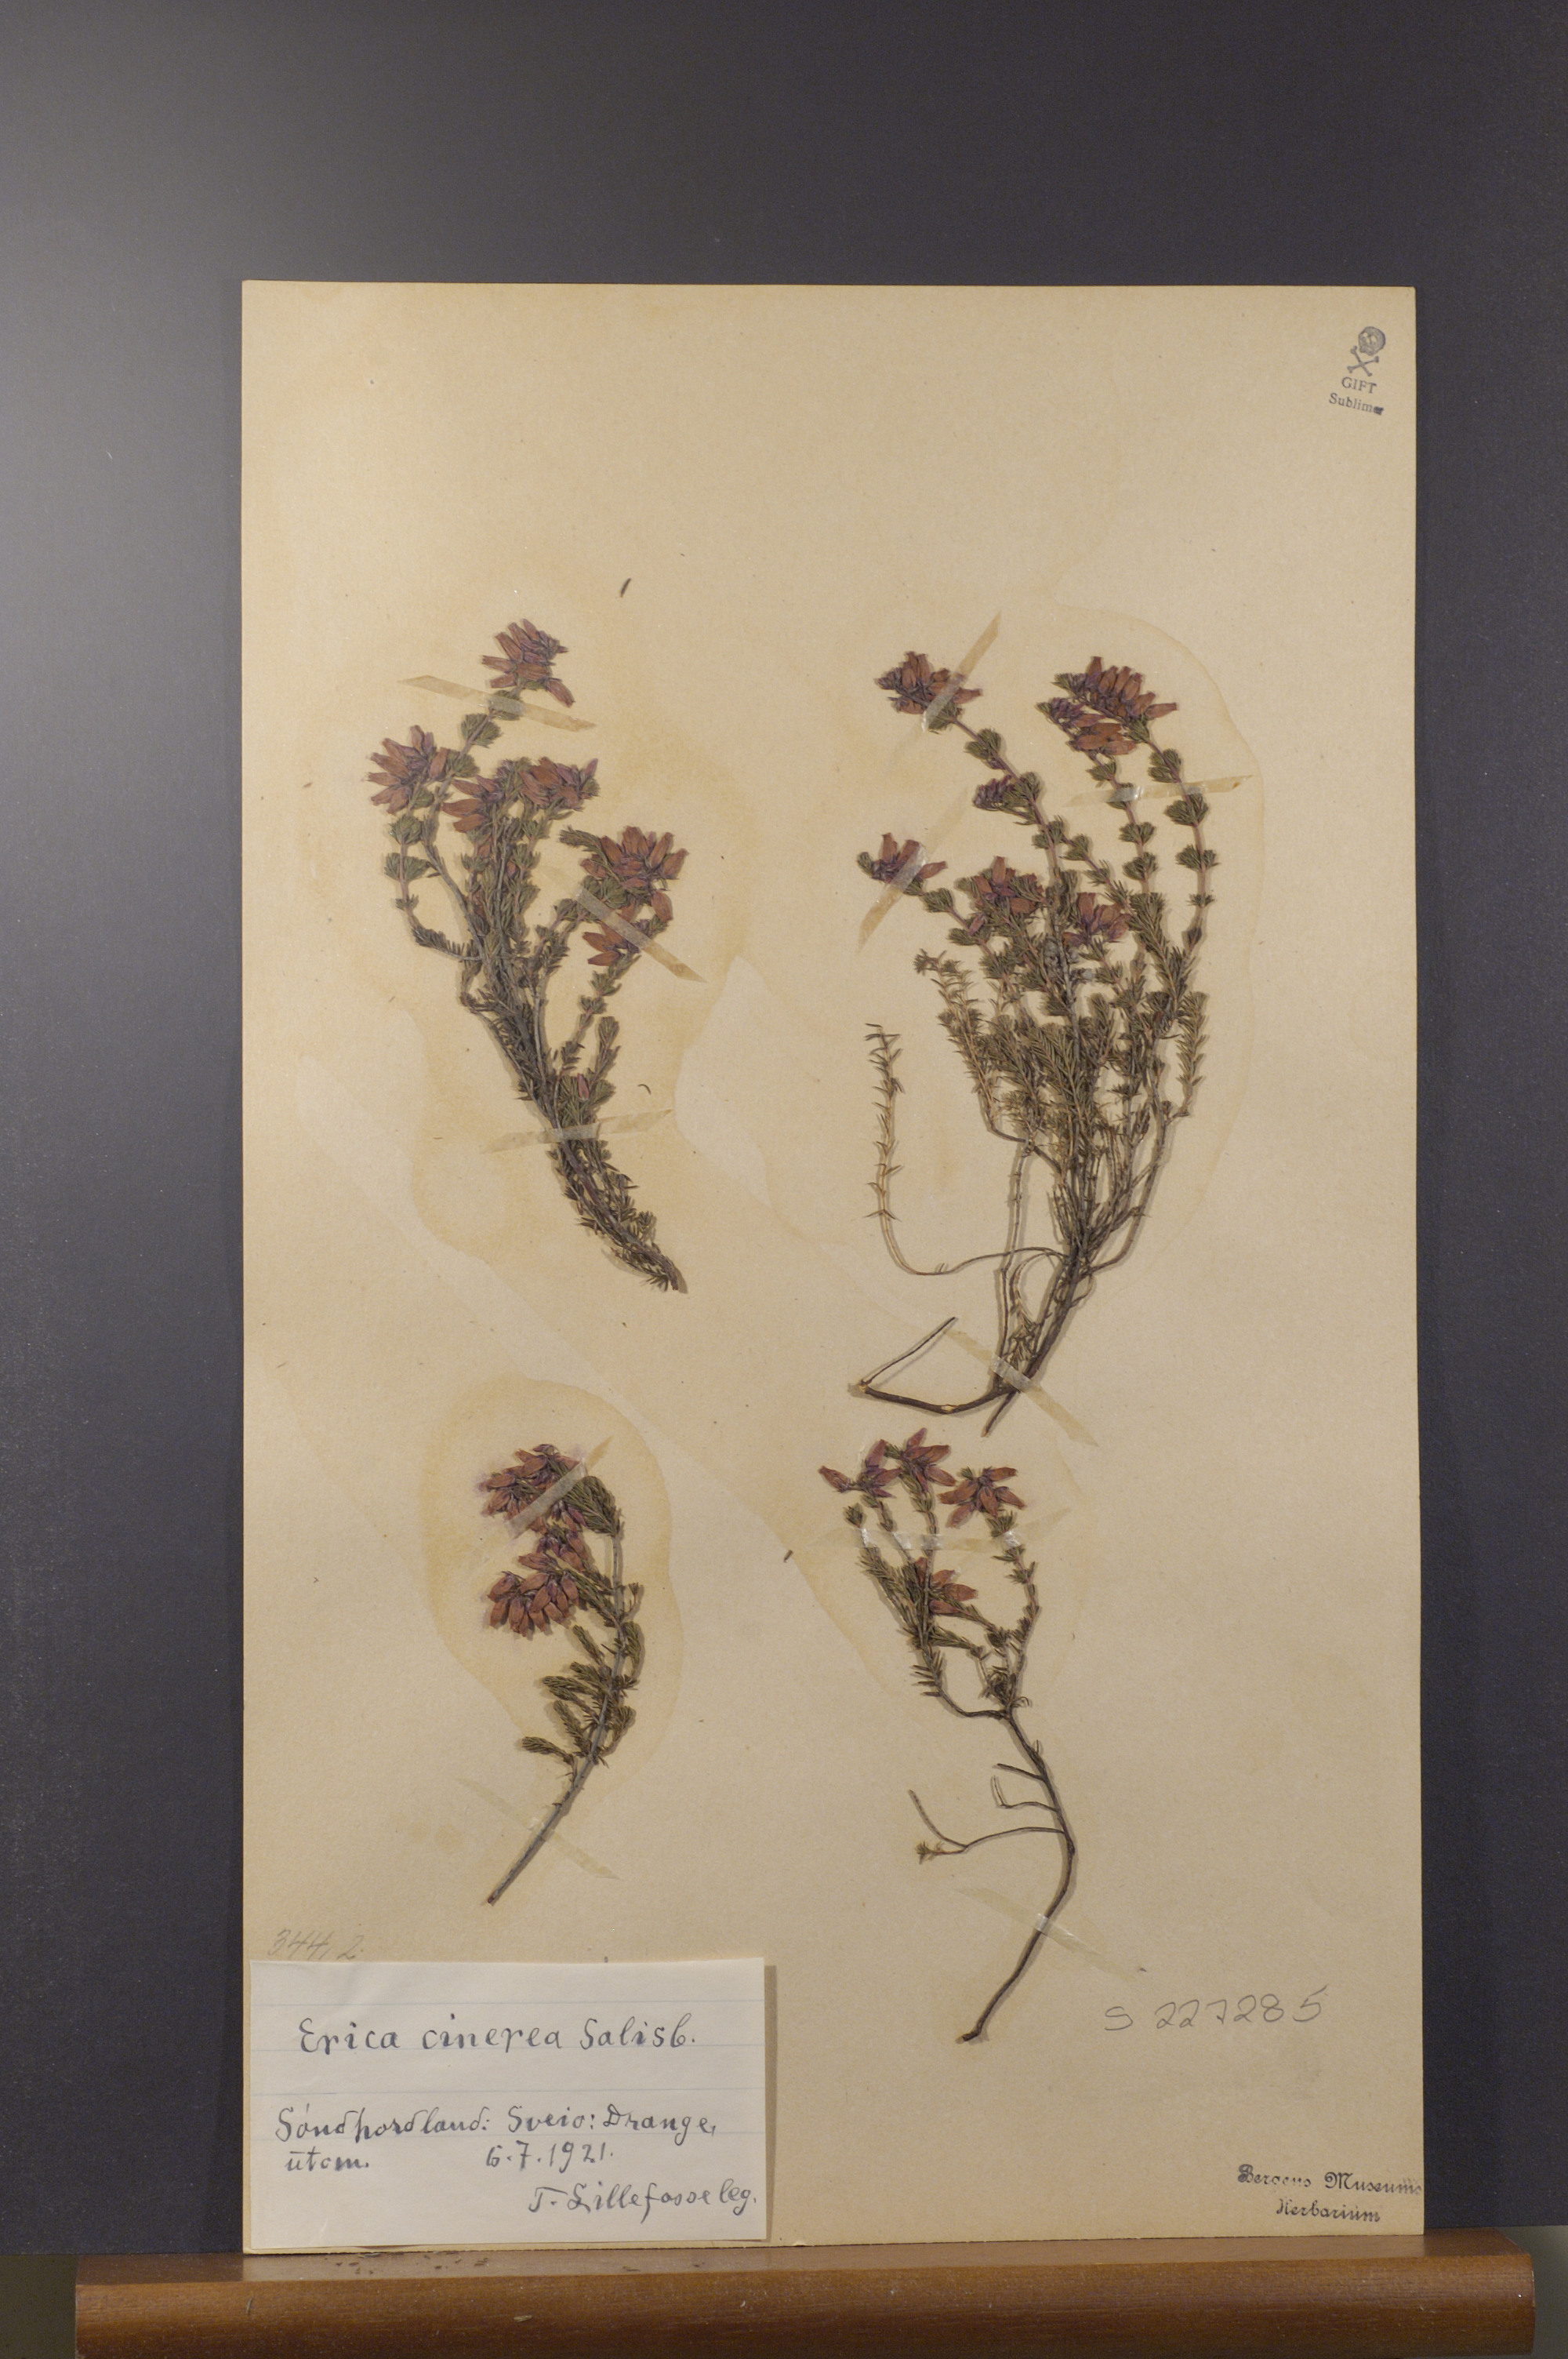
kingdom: Plantae
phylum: Tracheophyta
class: Magnoliopsida
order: Ericales
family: Ericaceae
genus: Erica
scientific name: Erica cinerea
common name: Bell heather
